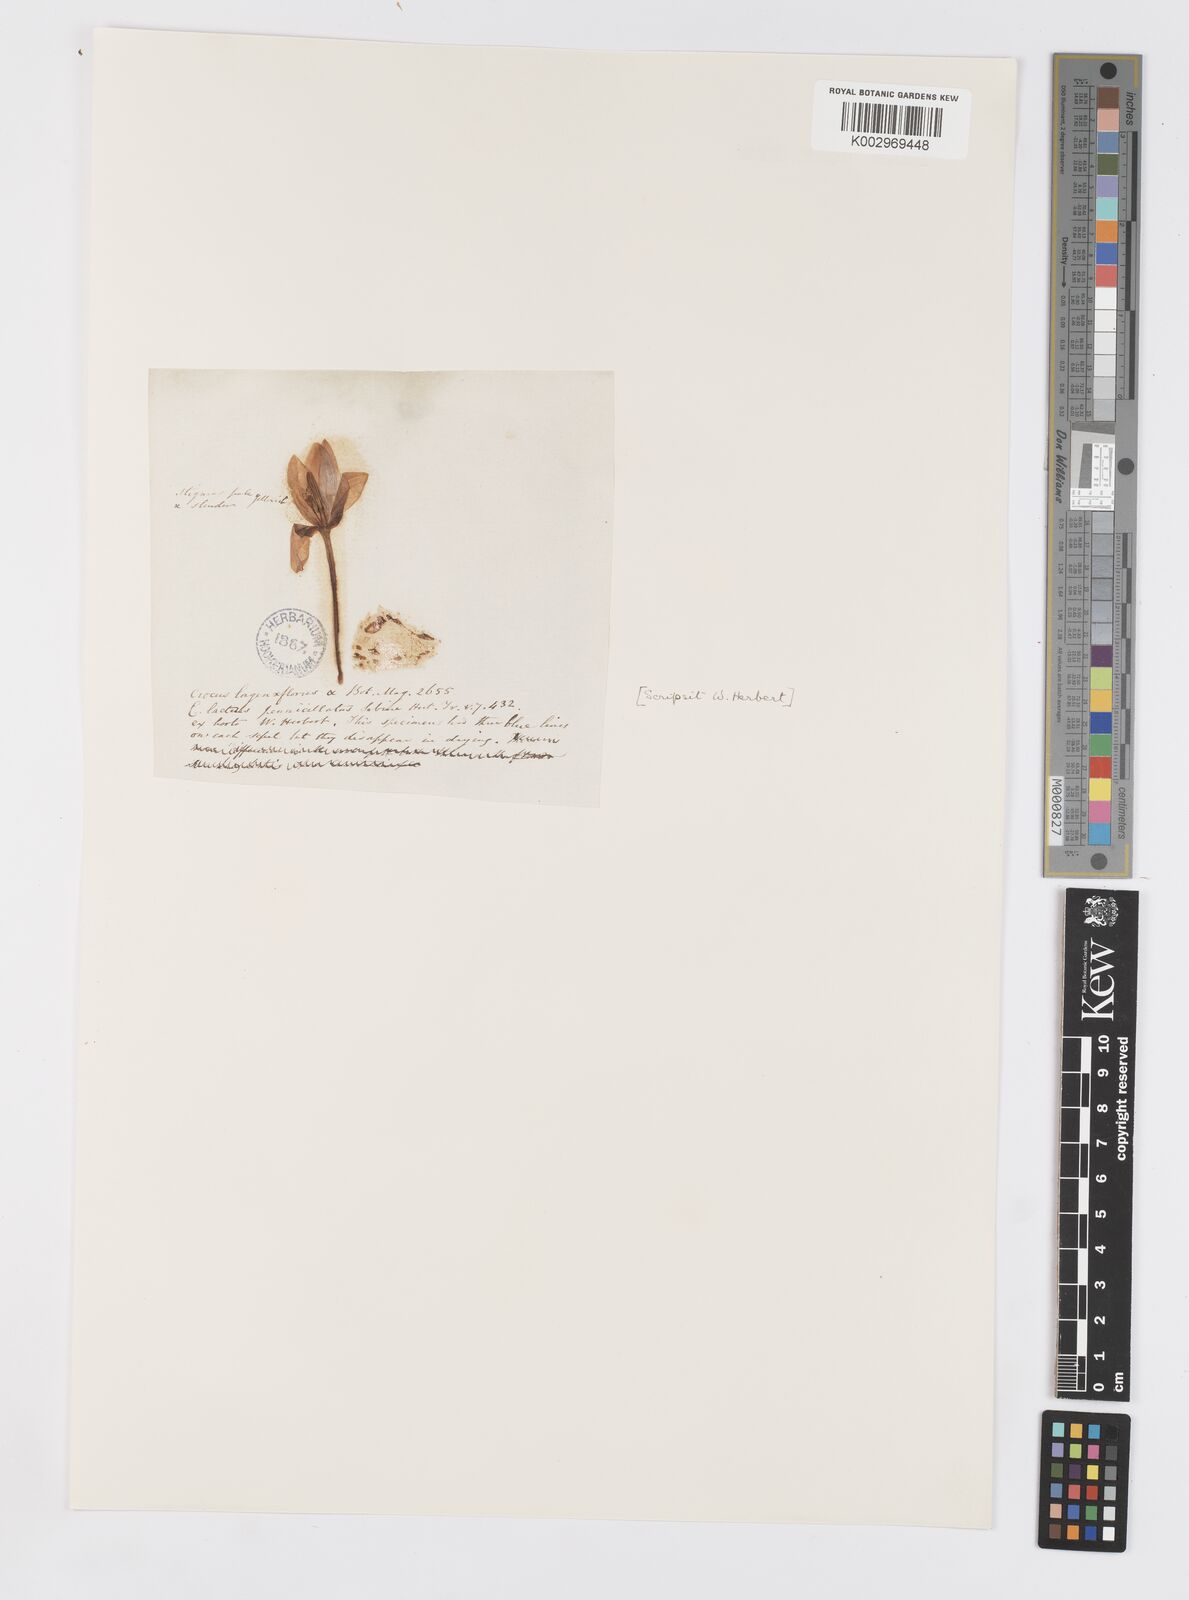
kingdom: Plantae
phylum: Tracheophyta
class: Liliopsida
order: Asparagales
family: Iridaceae
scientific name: Iridaceae
